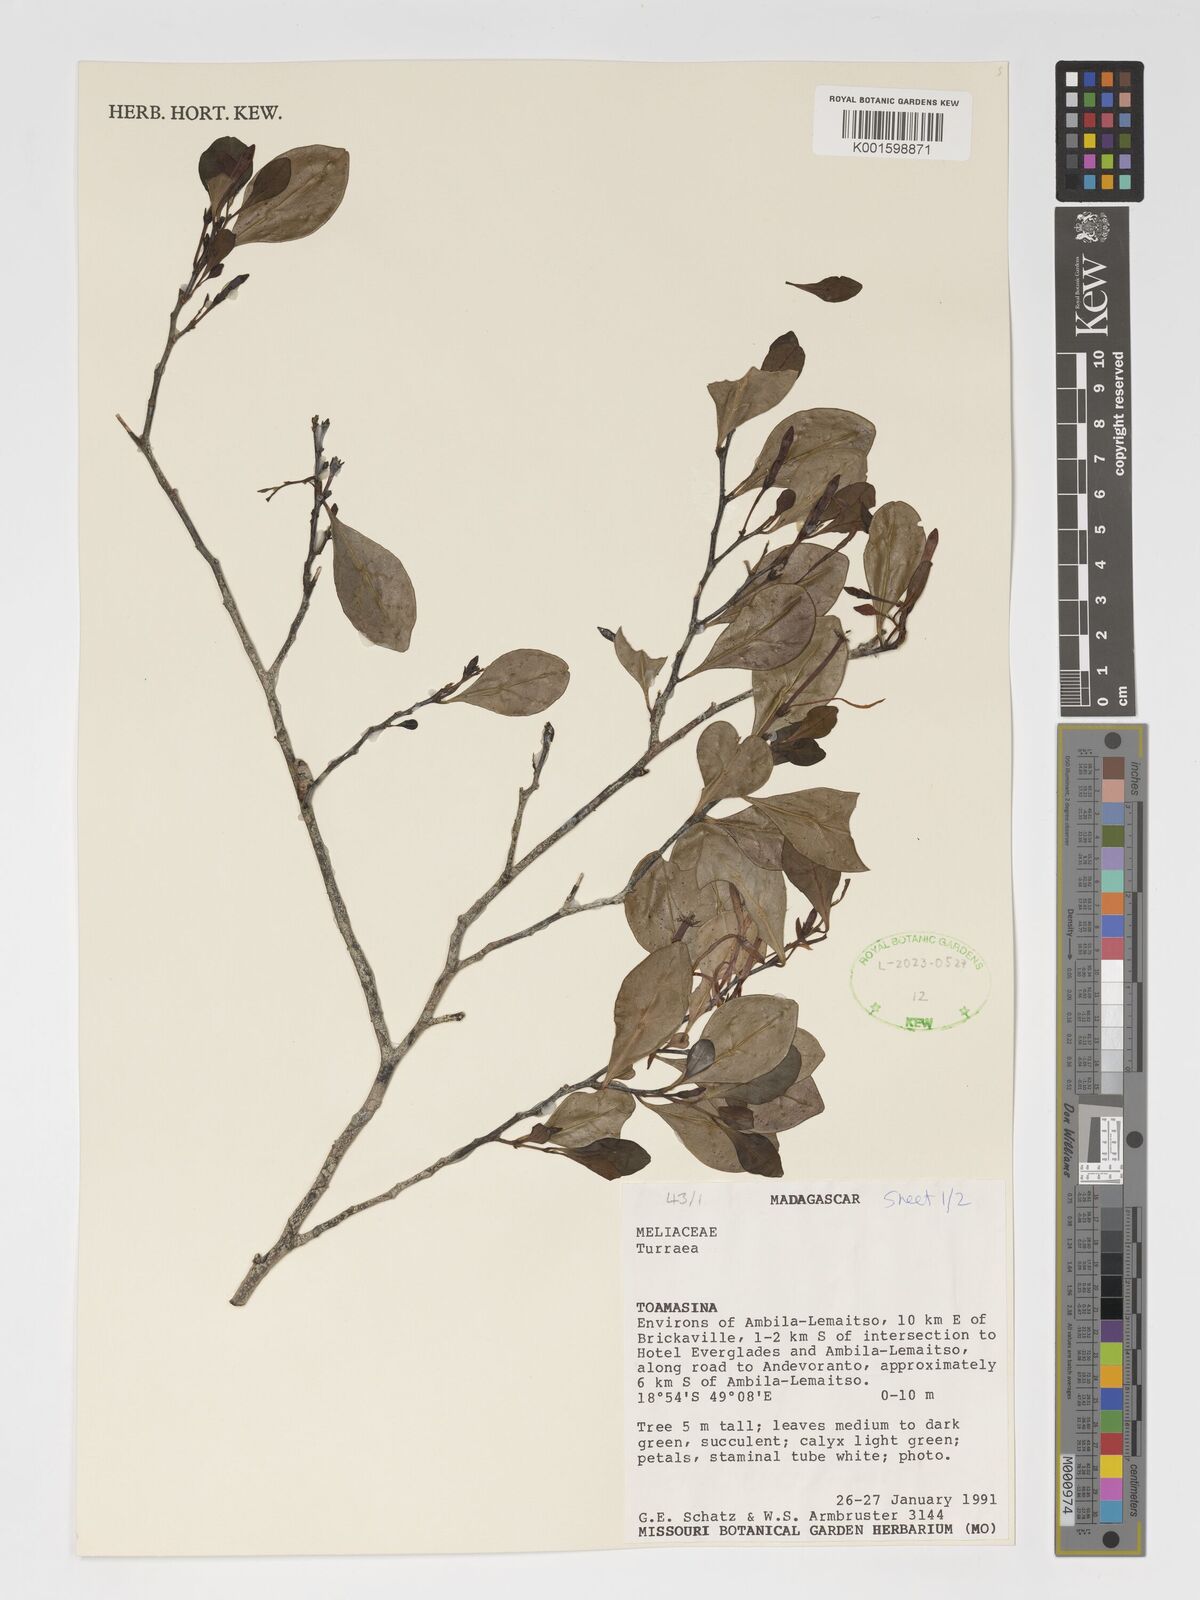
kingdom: Plantae
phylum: Tracheophyta
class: Magnoliopsida
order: Sapindales
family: Meliaceae
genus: Turraea
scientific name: Turraea
